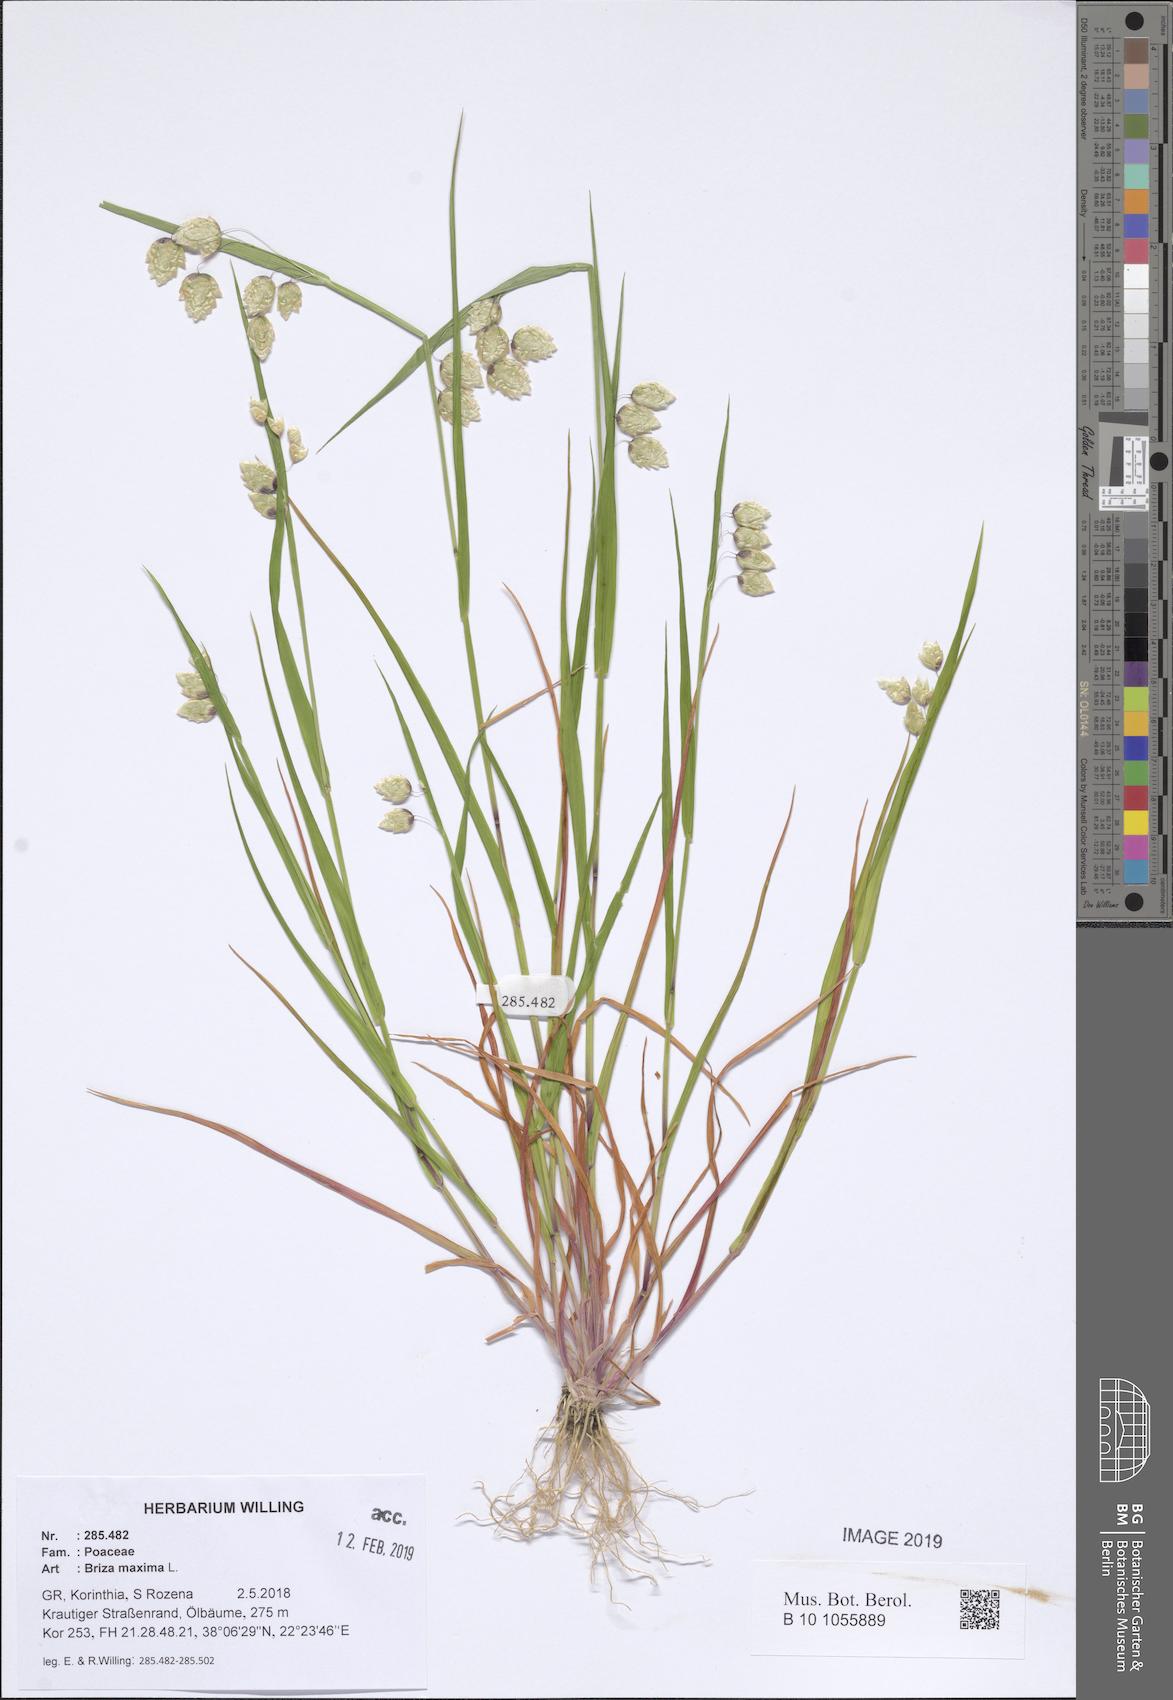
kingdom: Plantae
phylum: Tracheophyta
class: Liliopsida
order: Poales
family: Poaceae
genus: Briza
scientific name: Briza maxima
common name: Big quakinggrass
